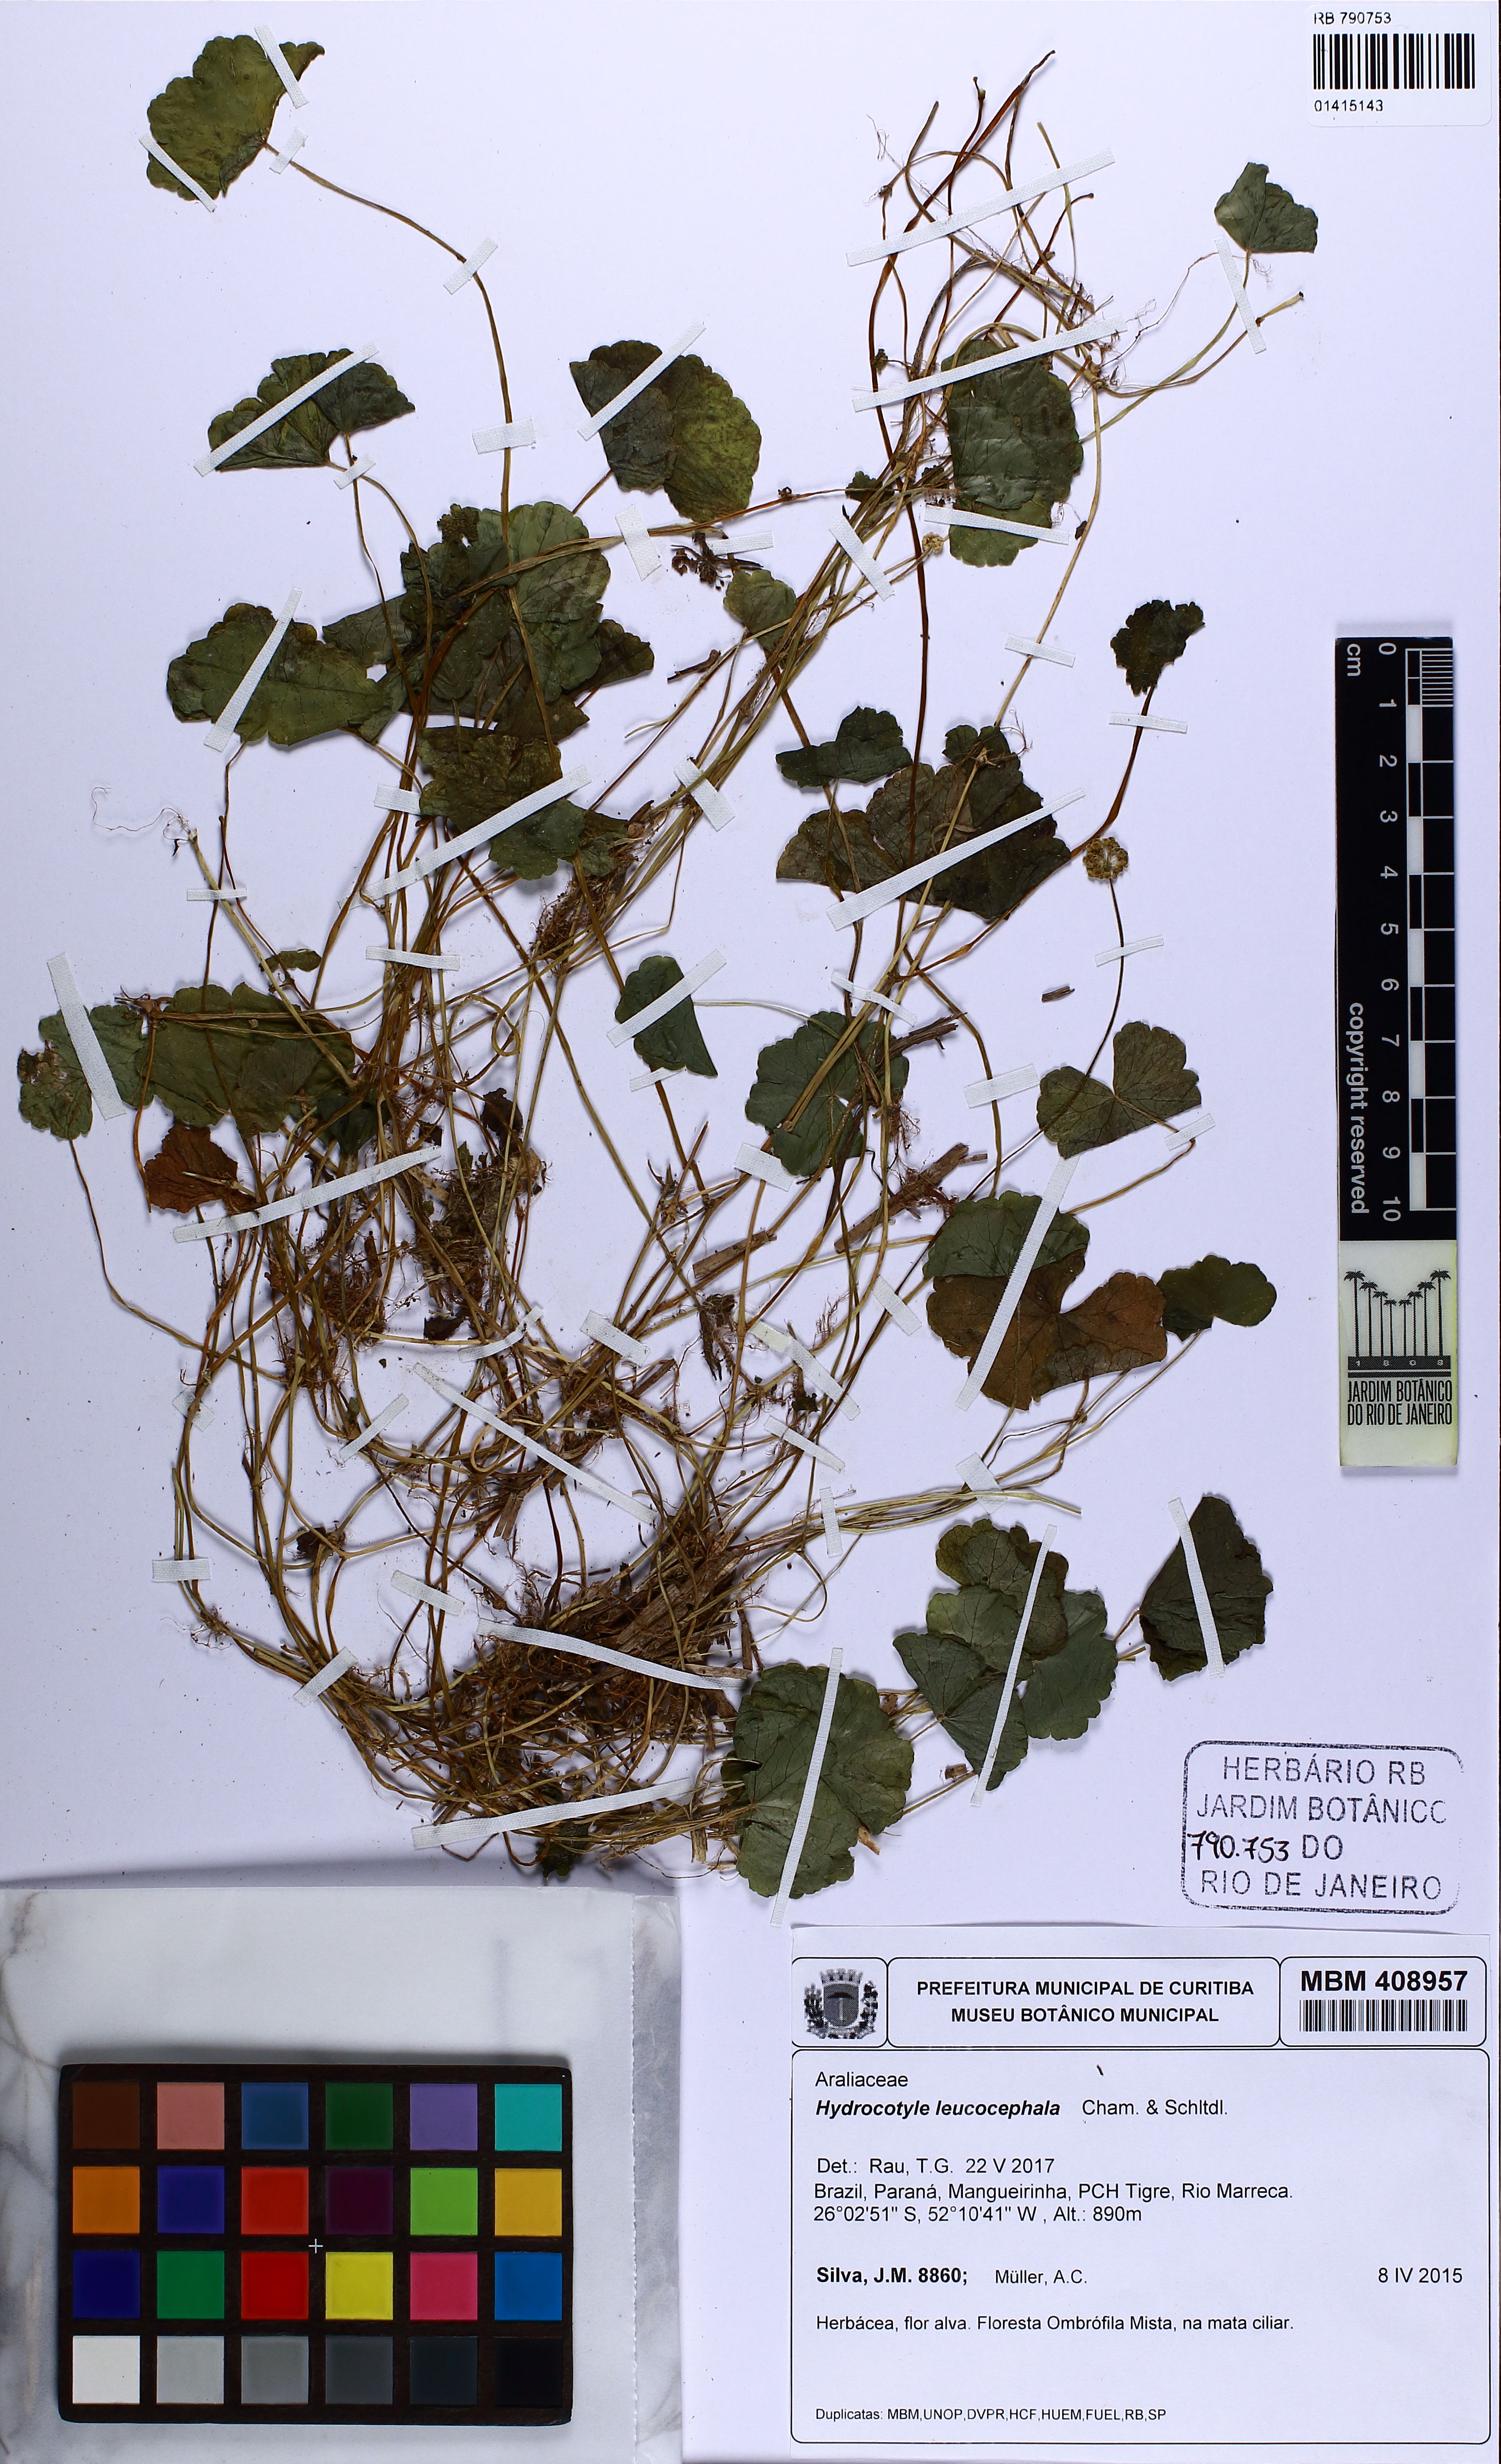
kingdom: Plantae
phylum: Tracheophyta
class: Magnoliopsida
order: Apiales
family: Araliaceae
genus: Hydrocotyle
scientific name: Hydrocotyle leucocephala
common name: Brazilian pennywort
